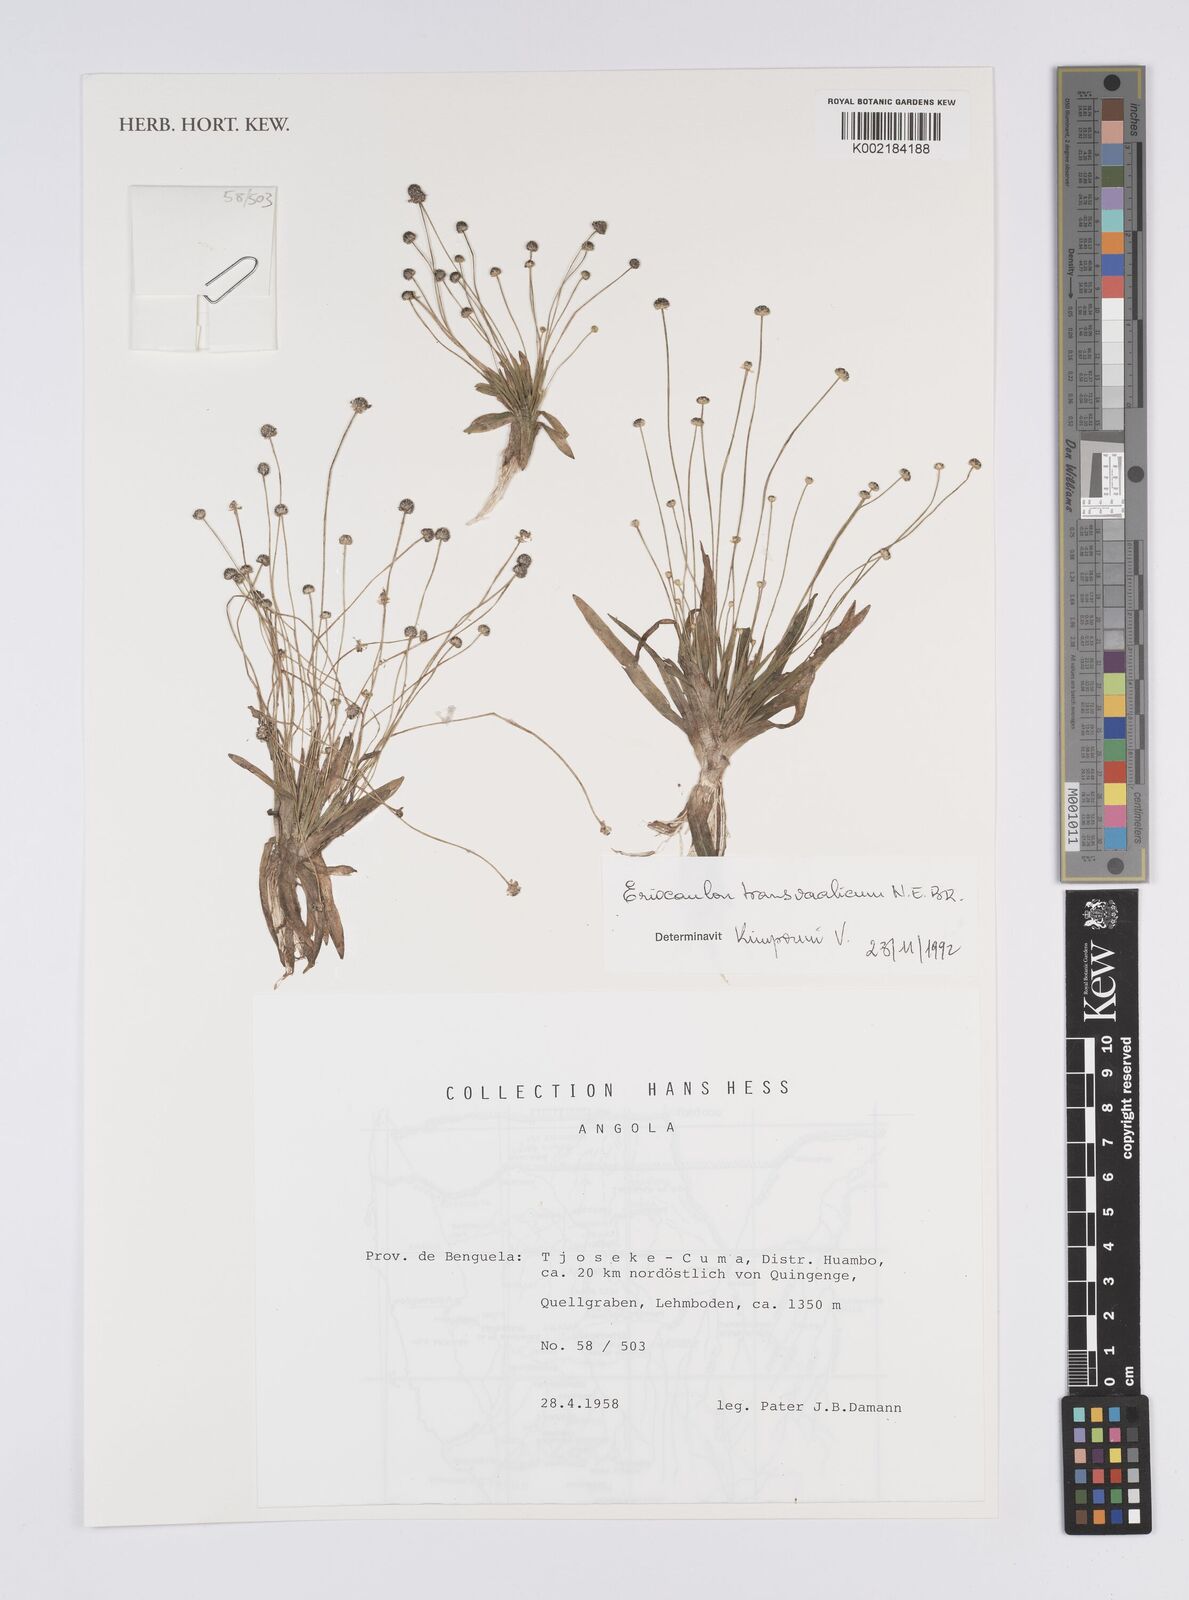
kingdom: Plantae
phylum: Tracheophyta
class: Liliopsida
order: Poales
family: Eriocaulaceae
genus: Eriocaulon
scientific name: Eriocaulon transvaalicum
